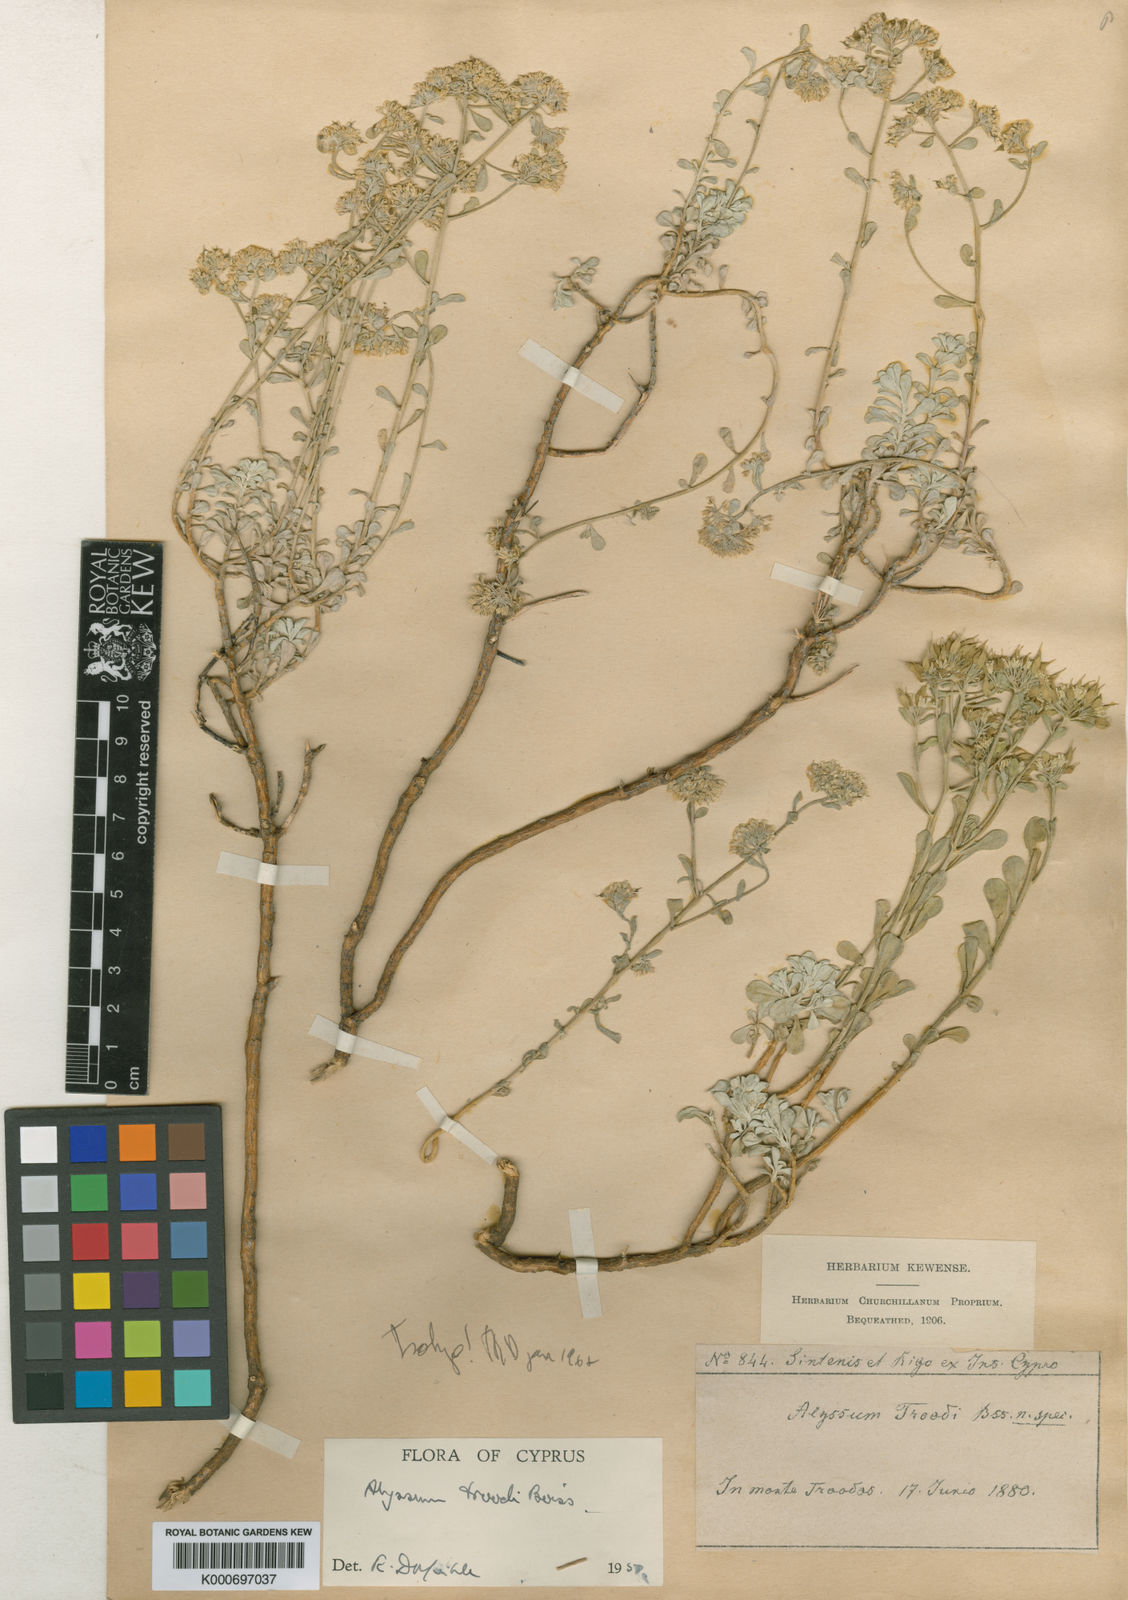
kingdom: Plantae
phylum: Tracheophyta
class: Magnoliopsida
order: Brassicales
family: Brassicaceae
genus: Odontarrhena
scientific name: Odontarrhena troodi
